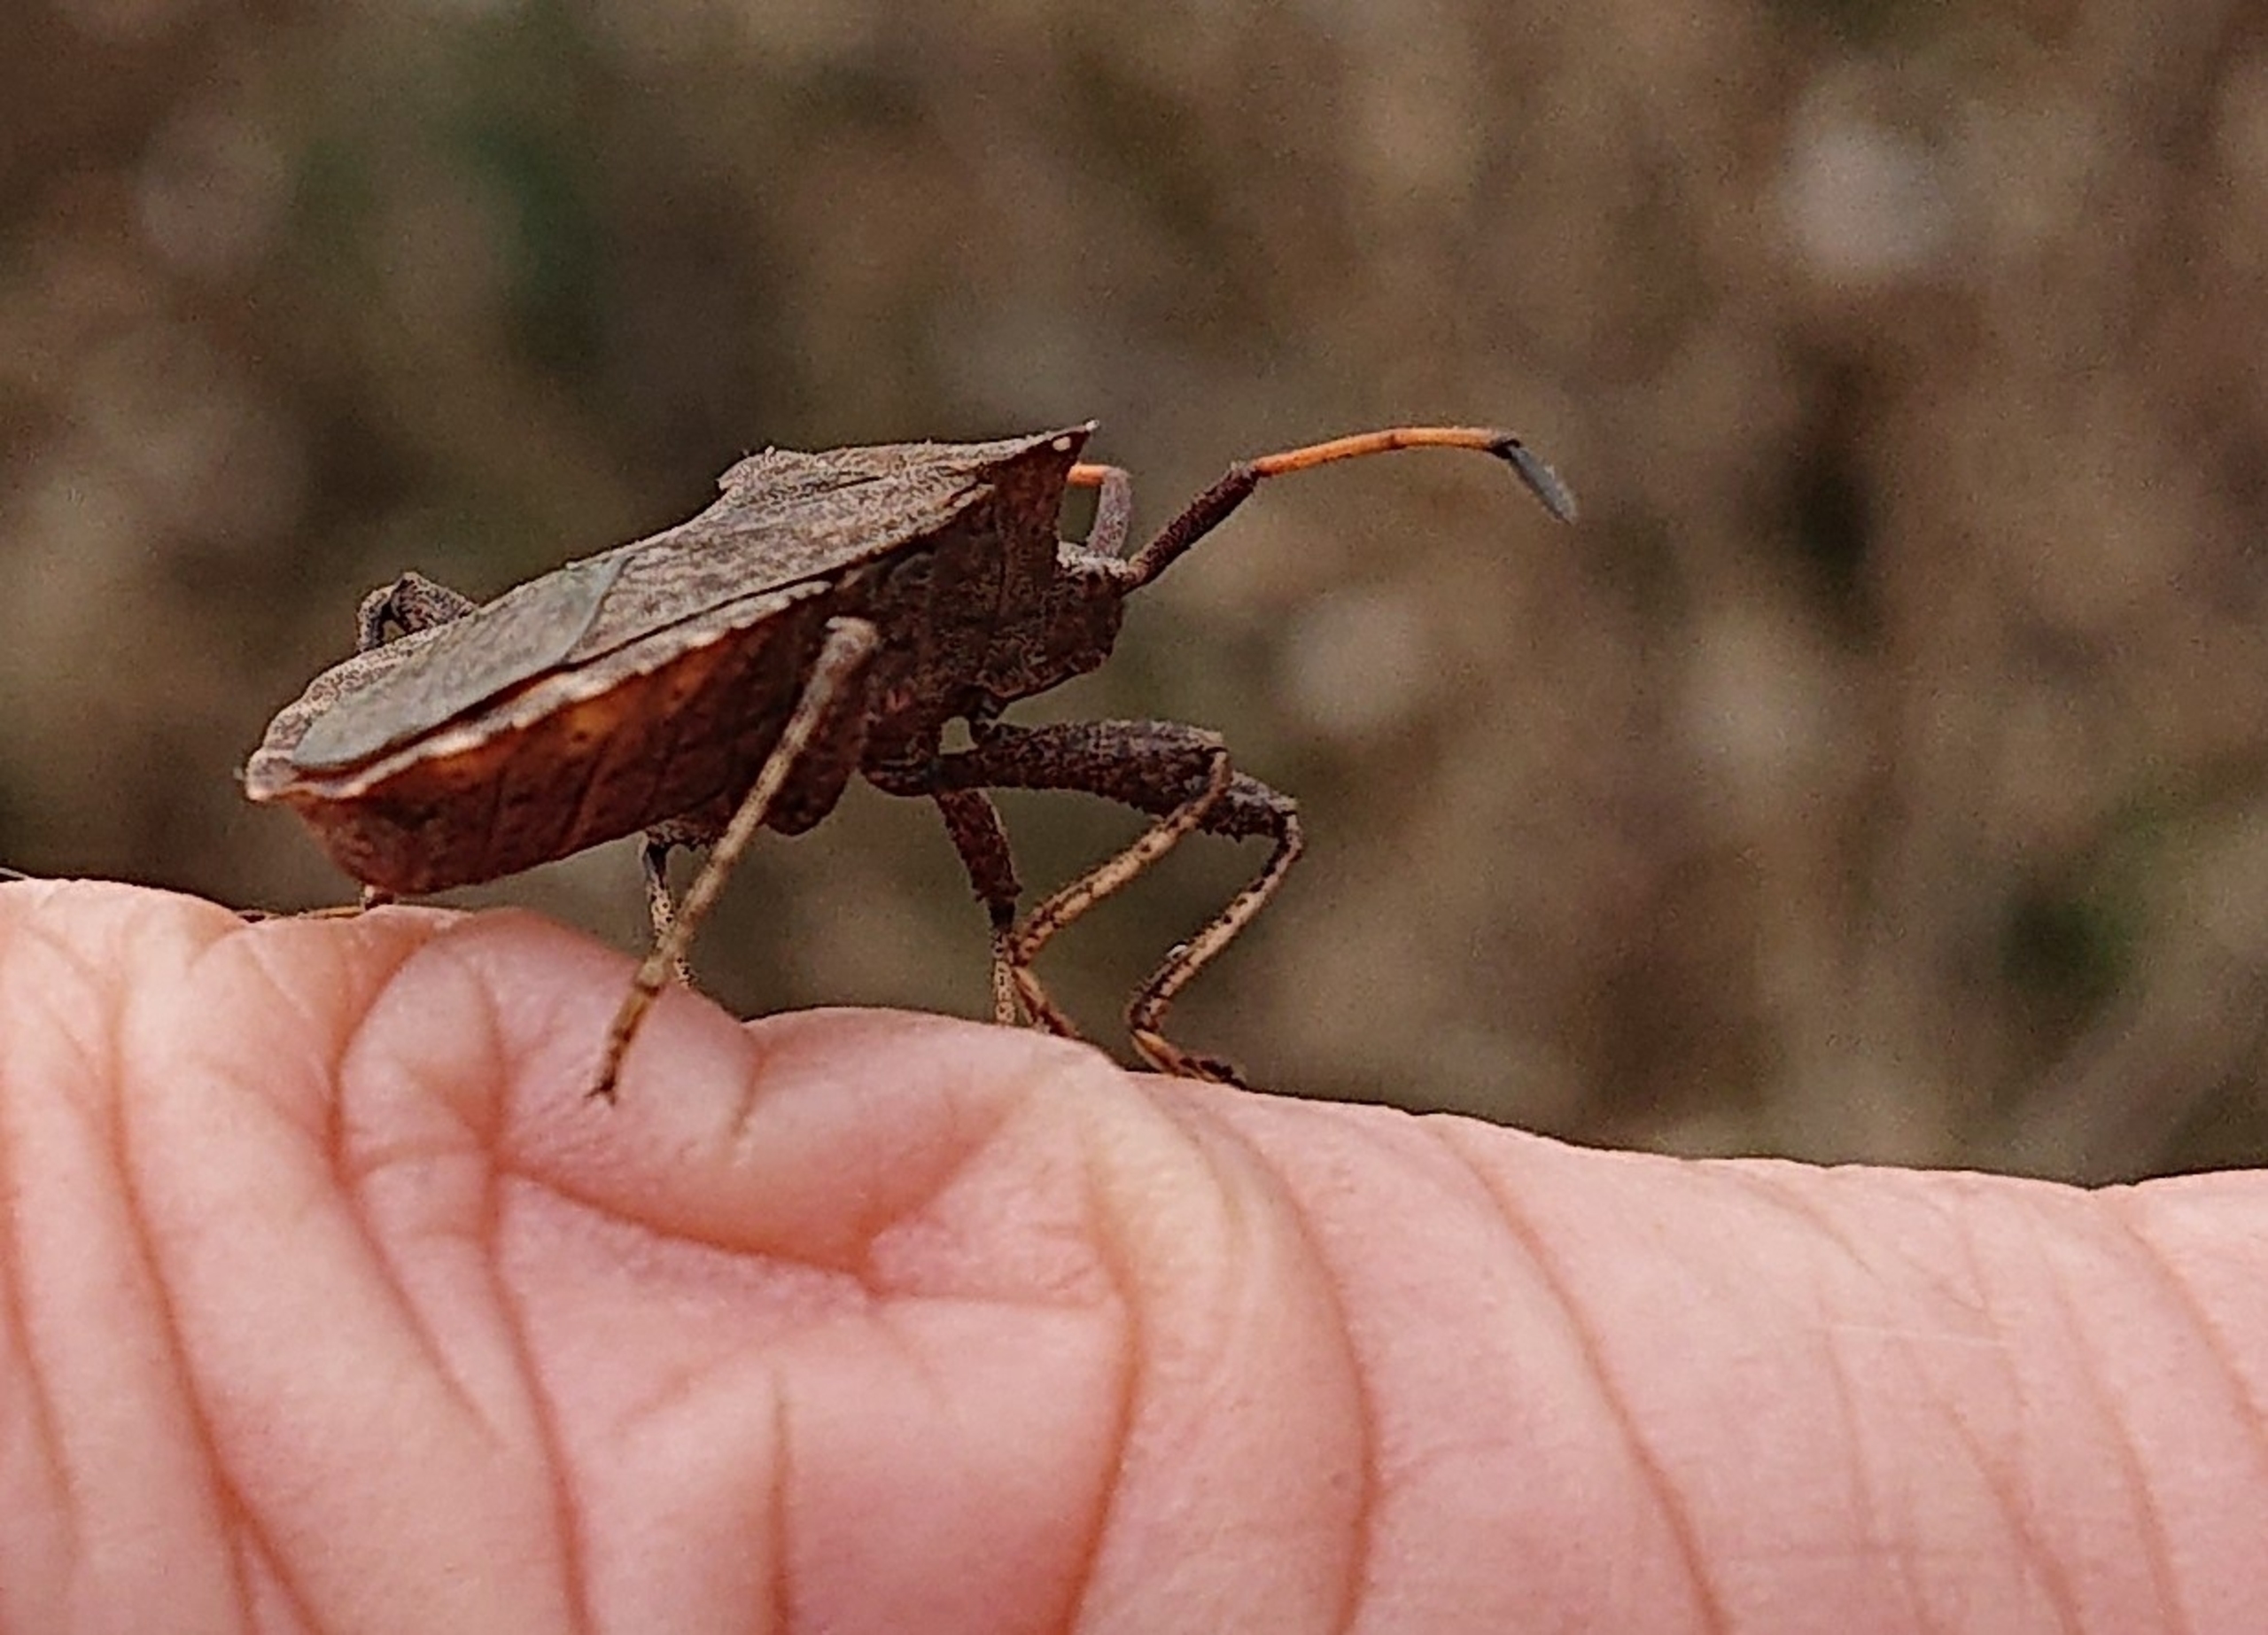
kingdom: Animalia
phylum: Arthropoda
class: Insecta
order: Hemiptera
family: Coreidae
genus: Coreus
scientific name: Coreus marginatus
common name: Skræppetæge
